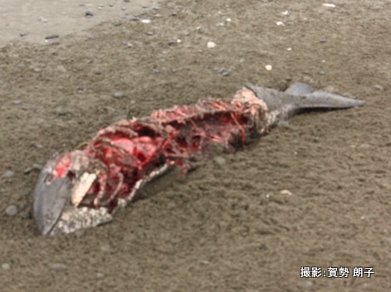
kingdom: Animalia
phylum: Chordata
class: Mammalia
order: Cetacea
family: Phocoenidae
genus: Phocoena
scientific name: Phocoena phocoena
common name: Harbour porpoise
